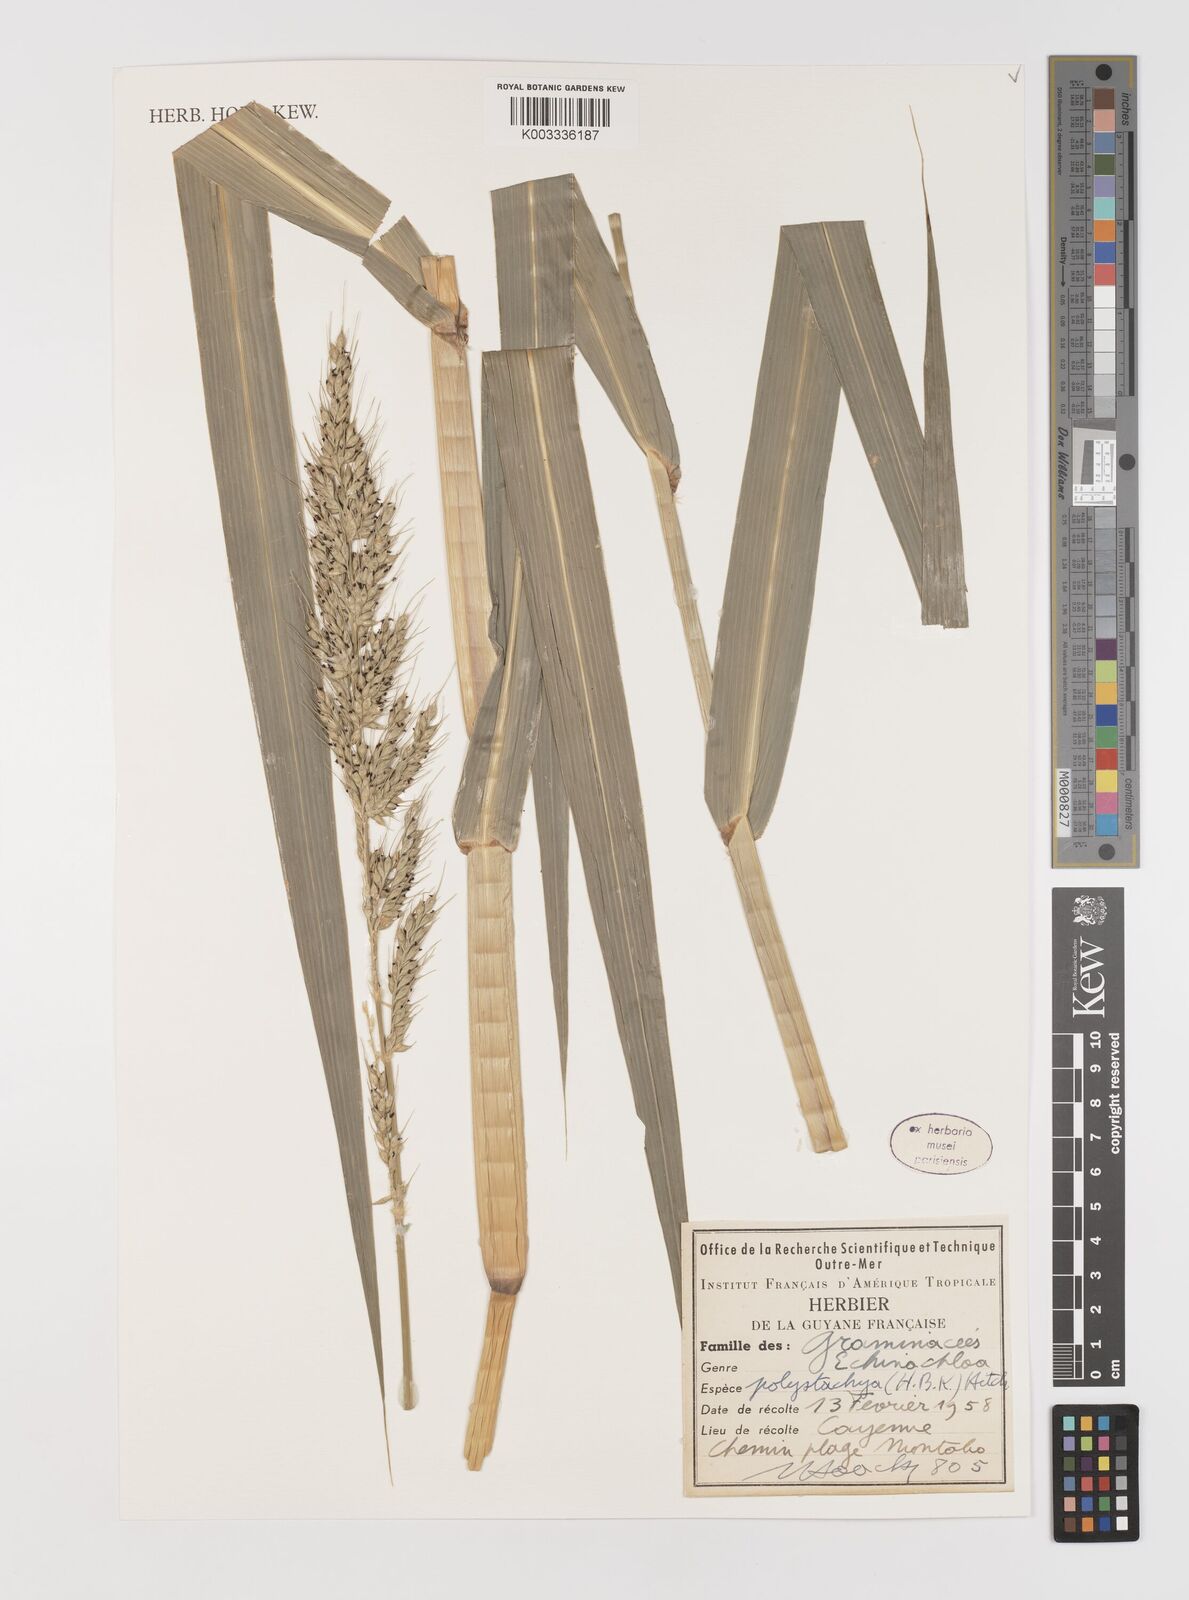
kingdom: Plantae
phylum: Tracheophyta
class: Liliopsida
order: Poales
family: Poaceae
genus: Echinochloa
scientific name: Echinochloa polystachya
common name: Creeping river grass
